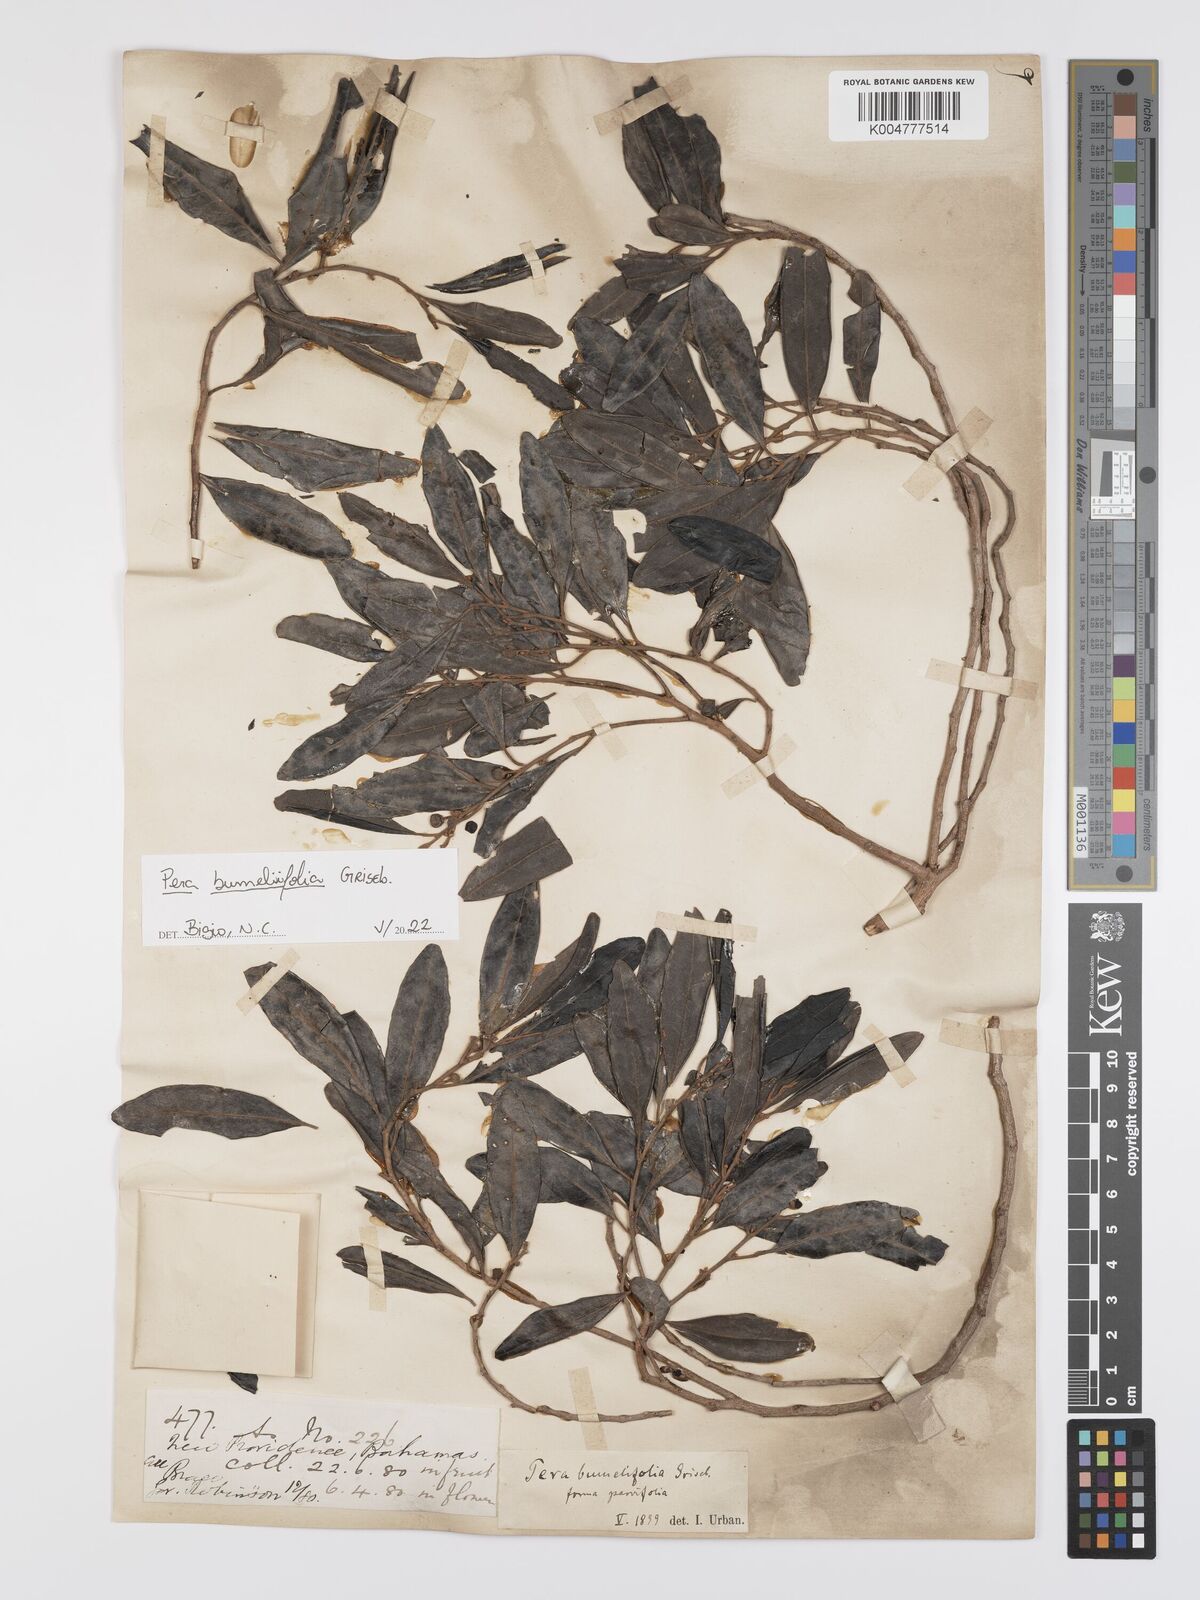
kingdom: Plantae
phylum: Tracheophyta
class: Magnoliopsida
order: Malpighiales
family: Peraceae
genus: Pera
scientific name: Pera
